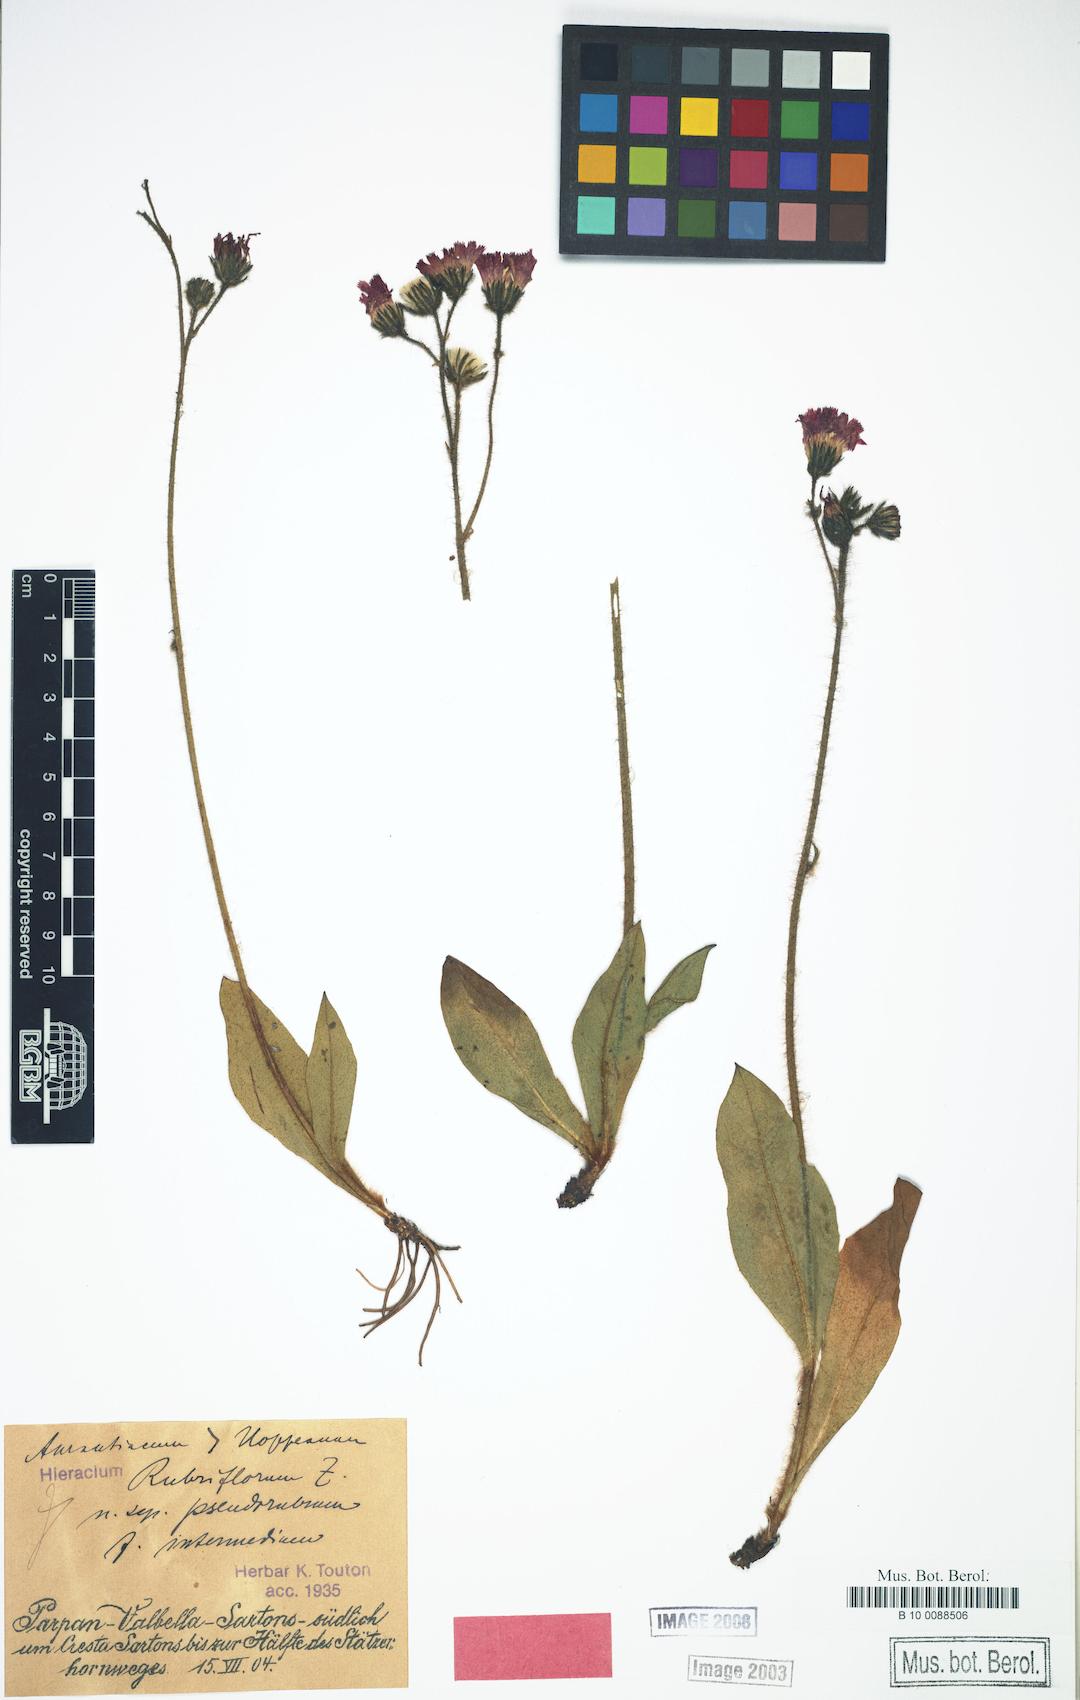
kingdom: Plantae
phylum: Tracheophyta
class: Magnoliopsida
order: Asterales
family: Asteraceae
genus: Pilosella
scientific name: Pilosella rubriflora
